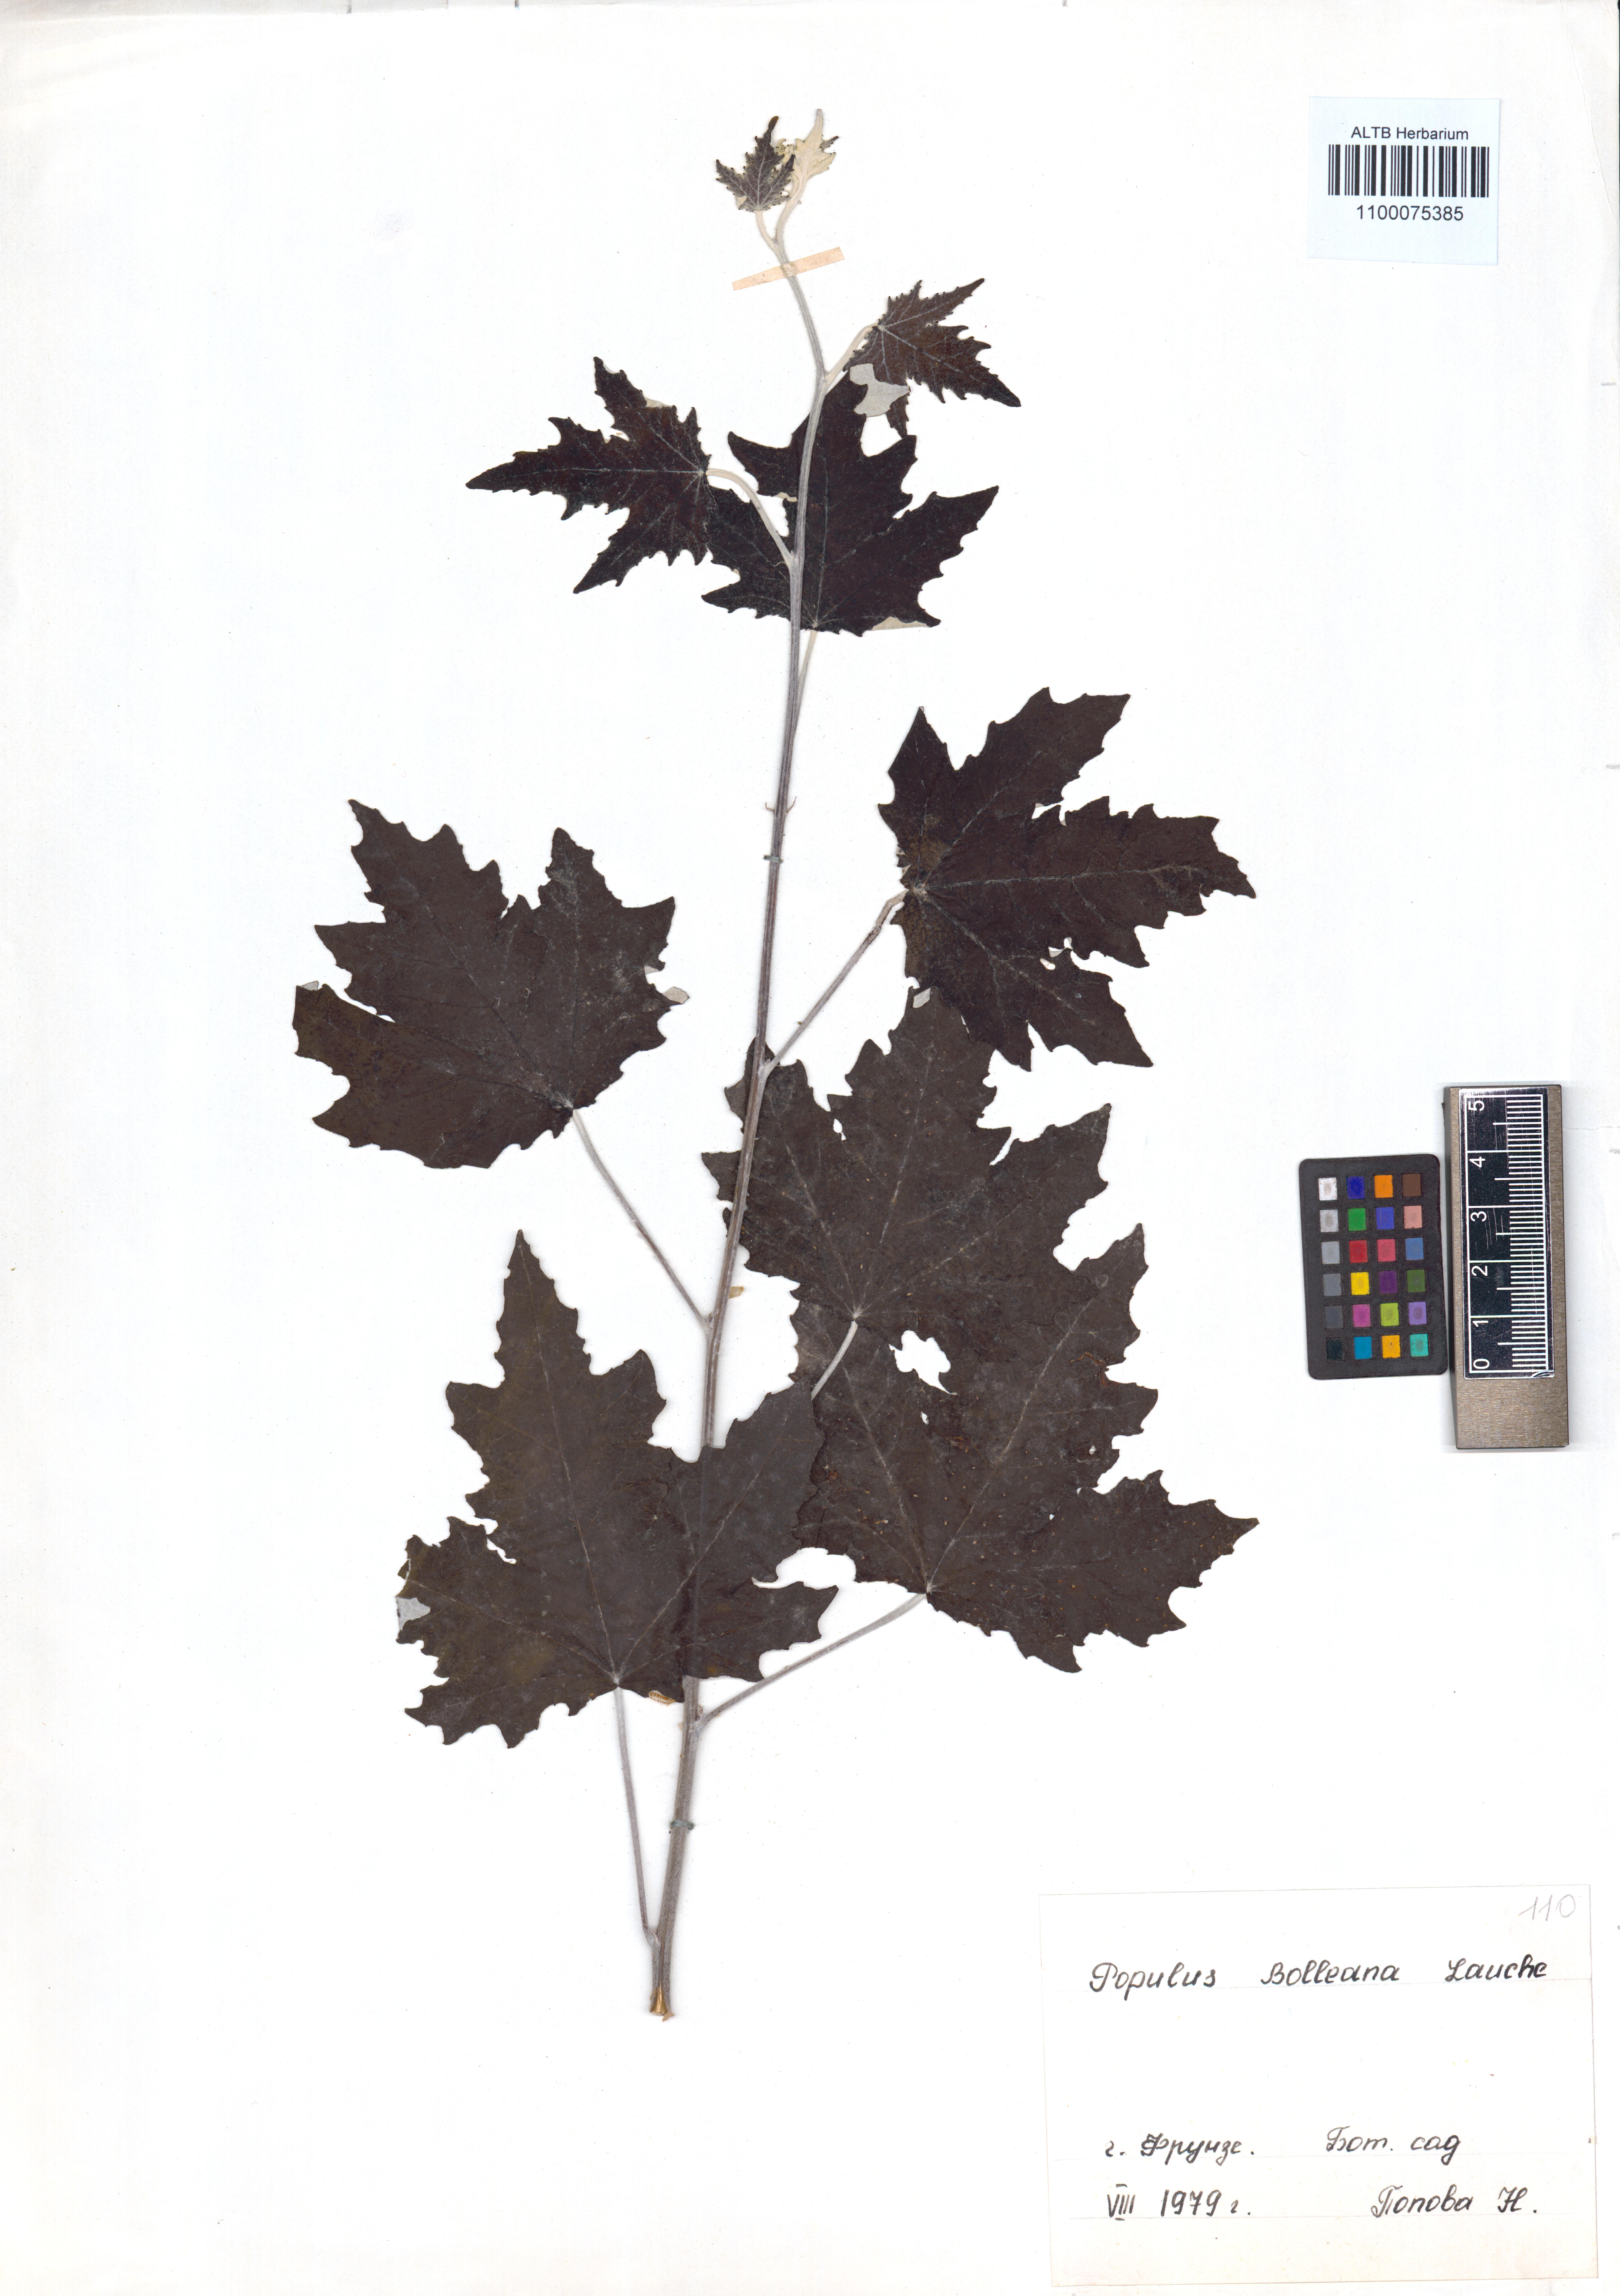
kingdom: Plantae
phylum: Tracheophyta
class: Magnoliopsida
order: Malpighiales
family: Salicaceae
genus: Populus
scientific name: Populus alba
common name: White poplar
